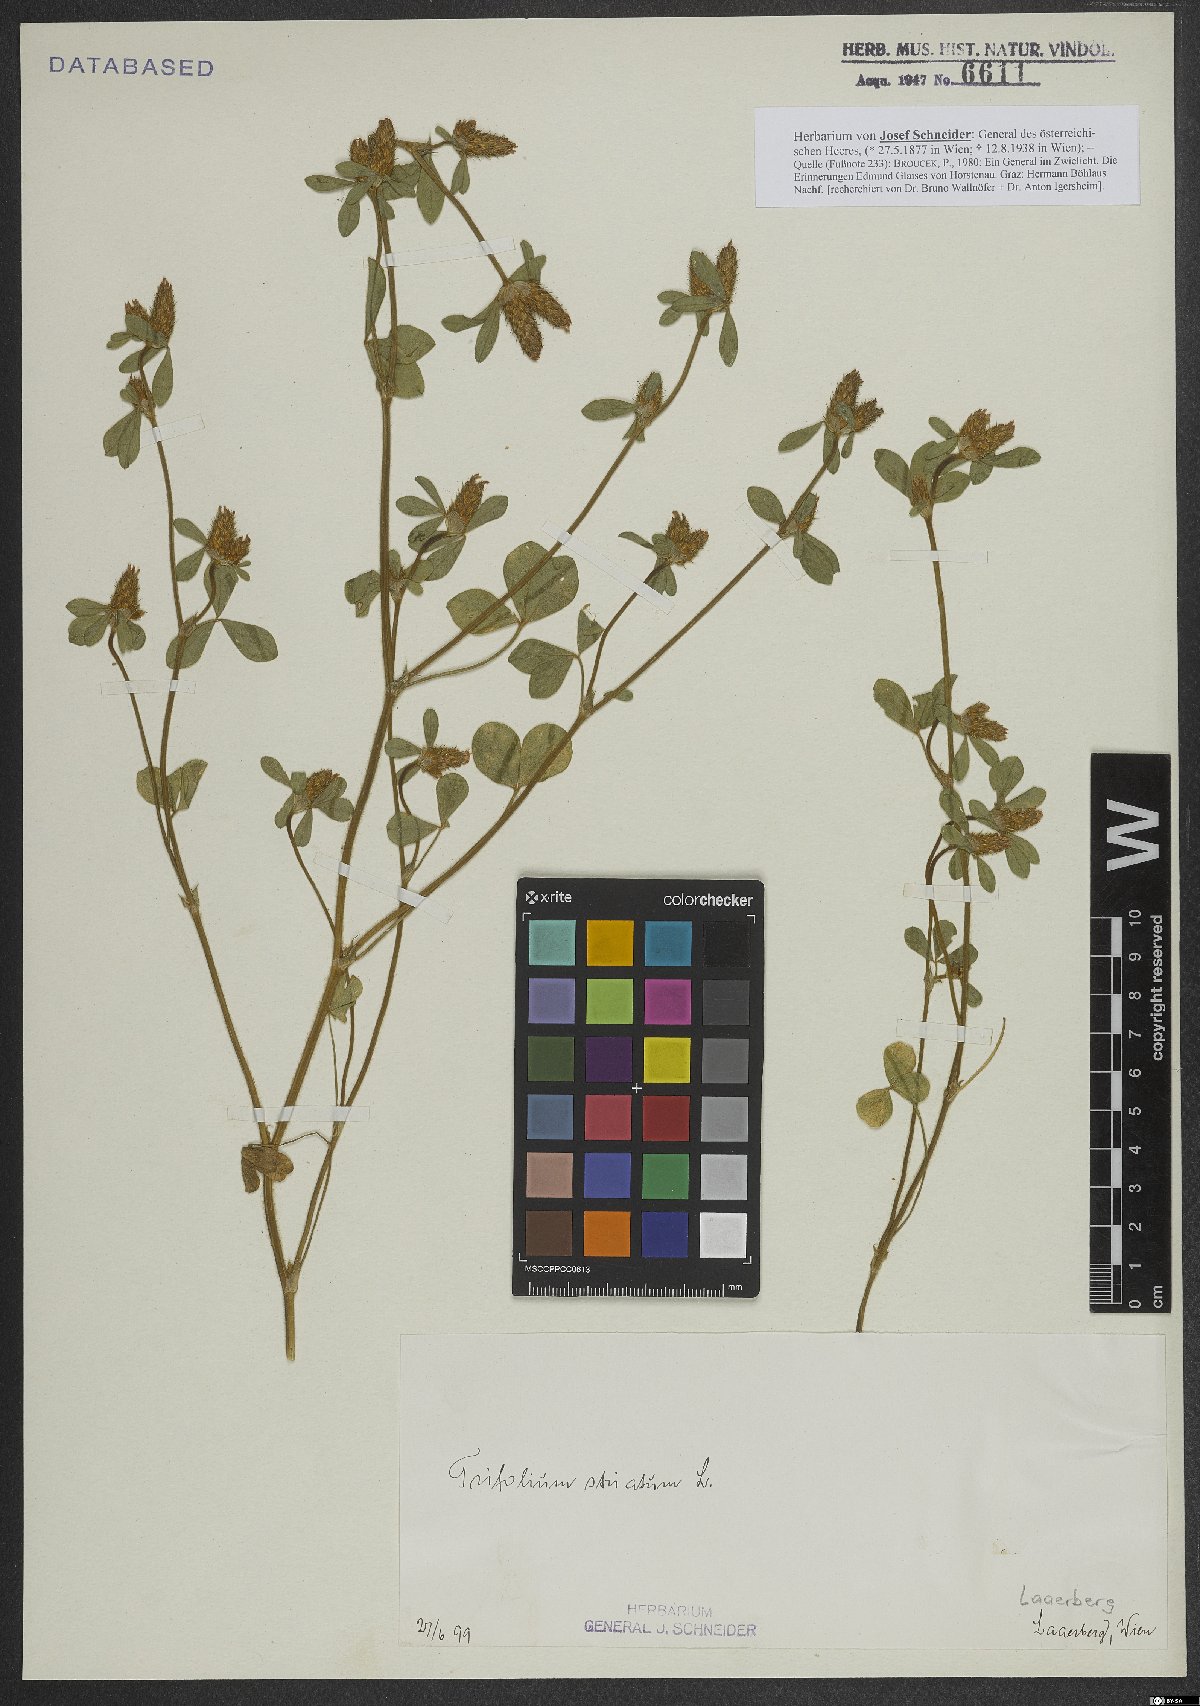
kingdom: Plantae
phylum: Tracheophyta
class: Magnoliopsida
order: Fabales
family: Fabaceae
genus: Trifolium
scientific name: Trifolium striatum
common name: Knotted clover
